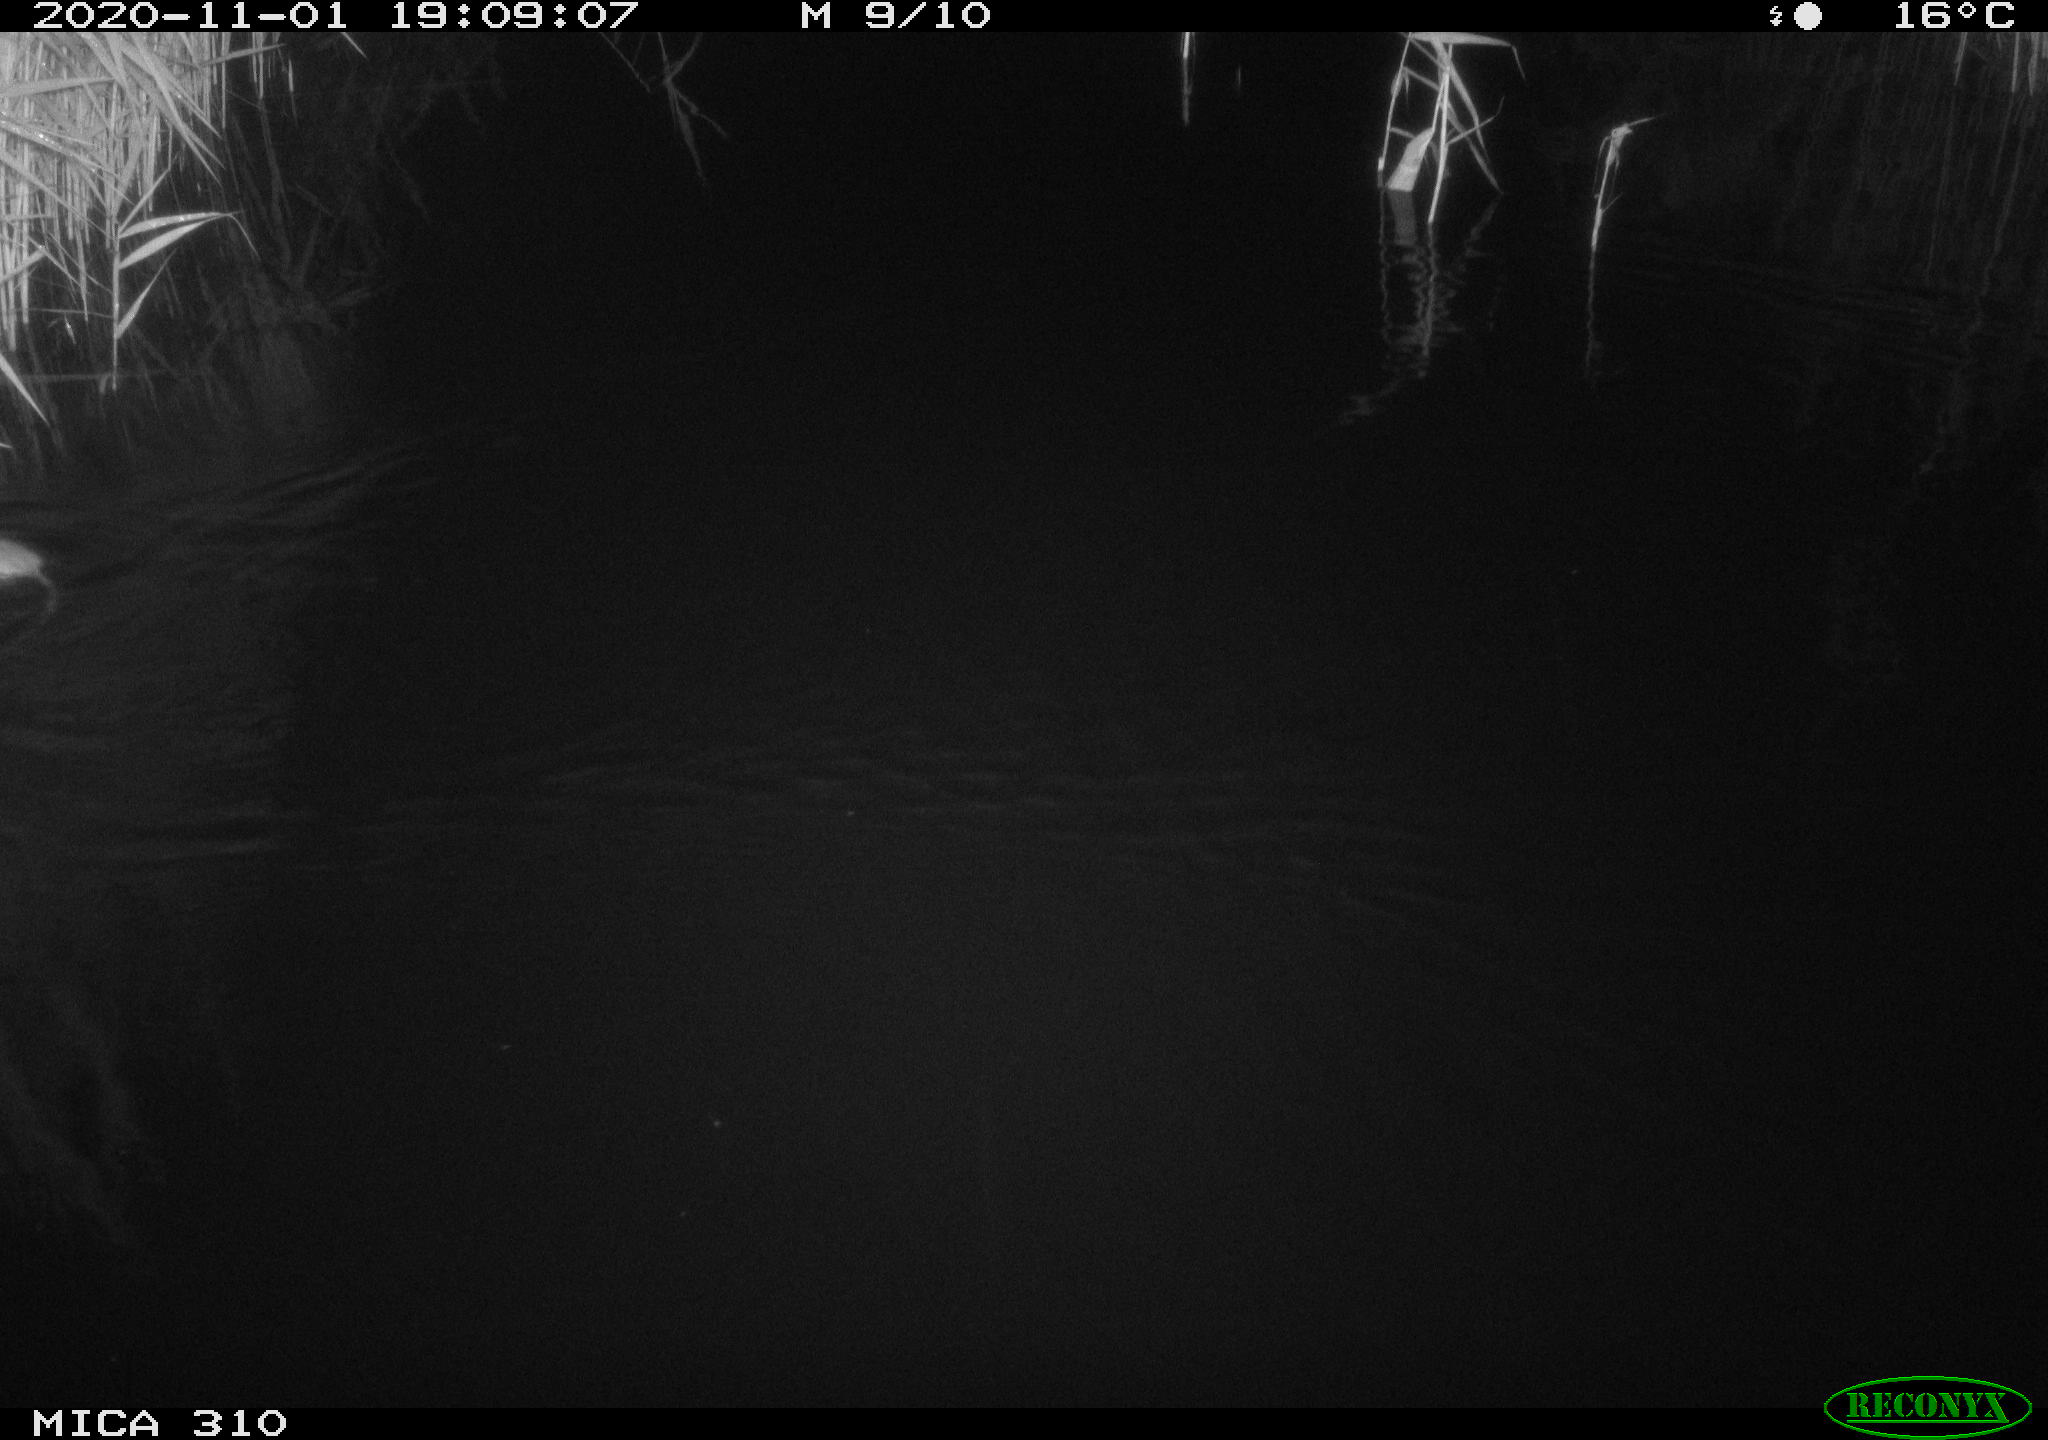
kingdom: Animalia
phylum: Chordata
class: Mammalia
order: Rodentia
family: Muridae
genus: Rattus
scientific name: Rattus norvegicus
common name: Brown rat
